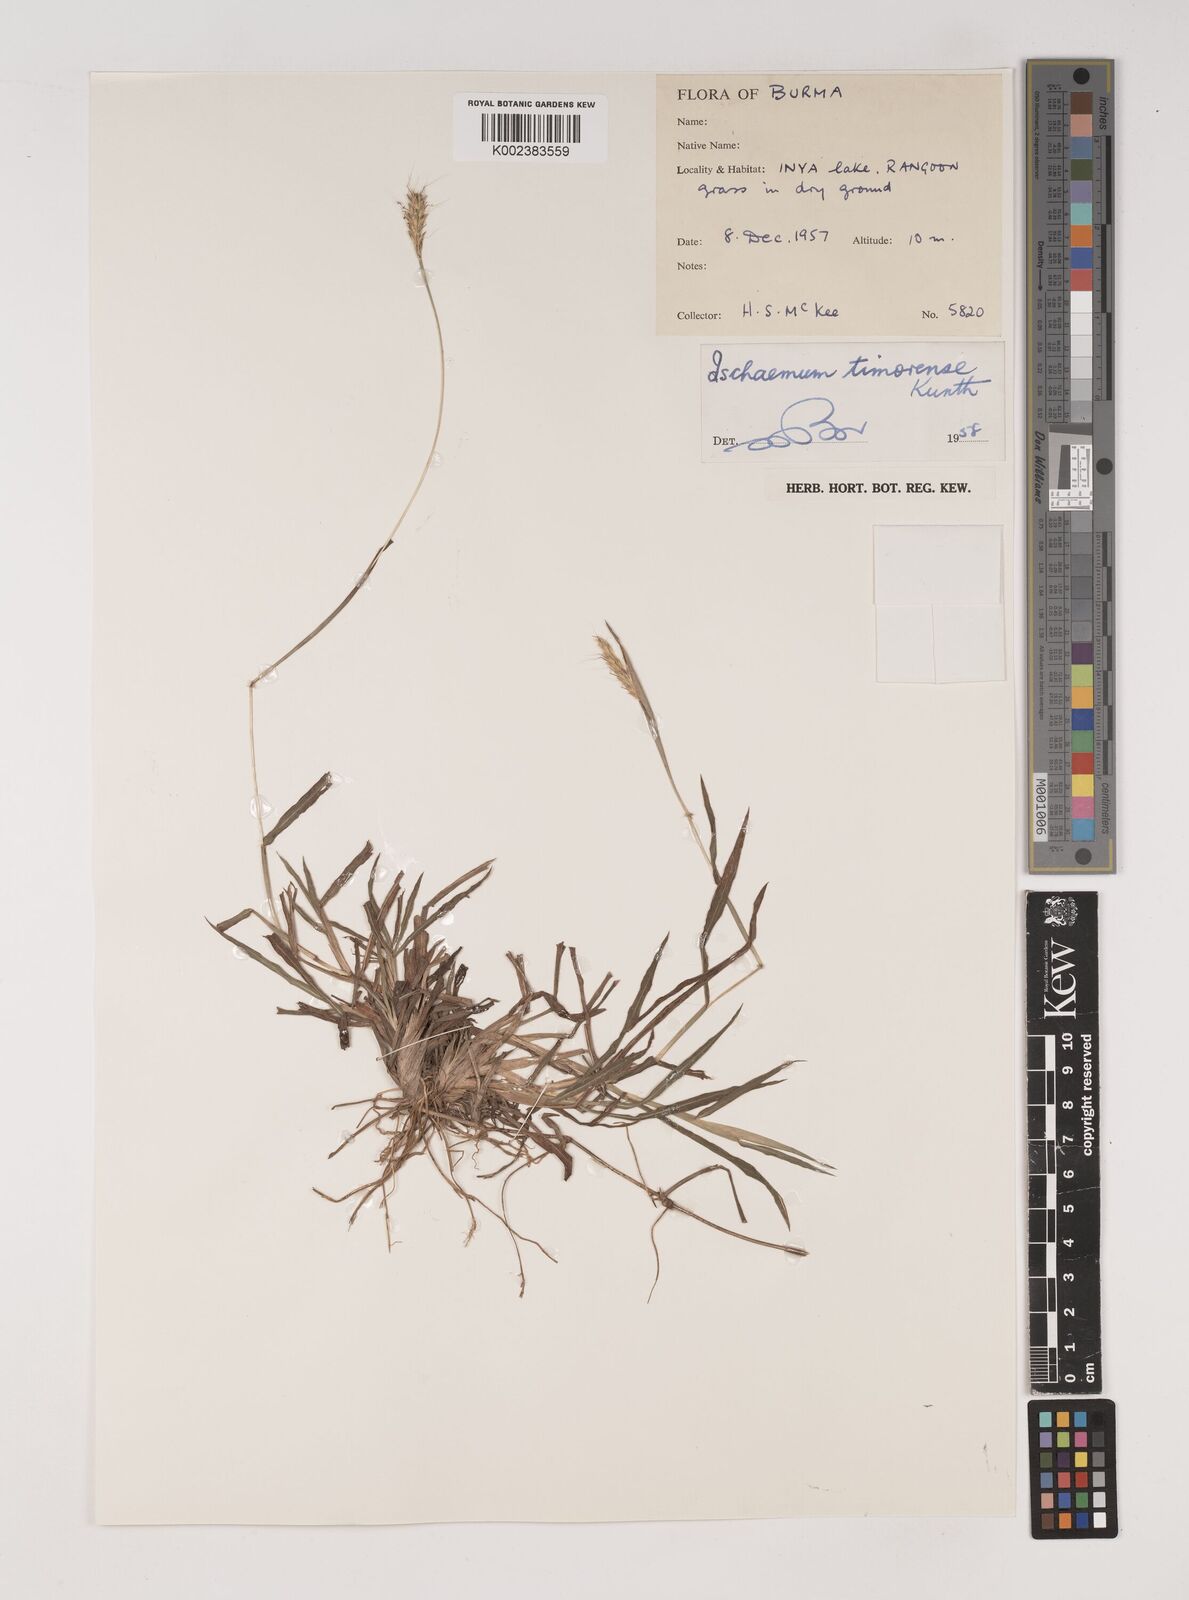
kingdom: Plantae
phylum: Tracheophyta
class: Liliopsida
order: Poales
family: Poaceae
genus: Ischaemum
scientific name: Ischaemum timorense
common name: Stalkleaf murainagrass
